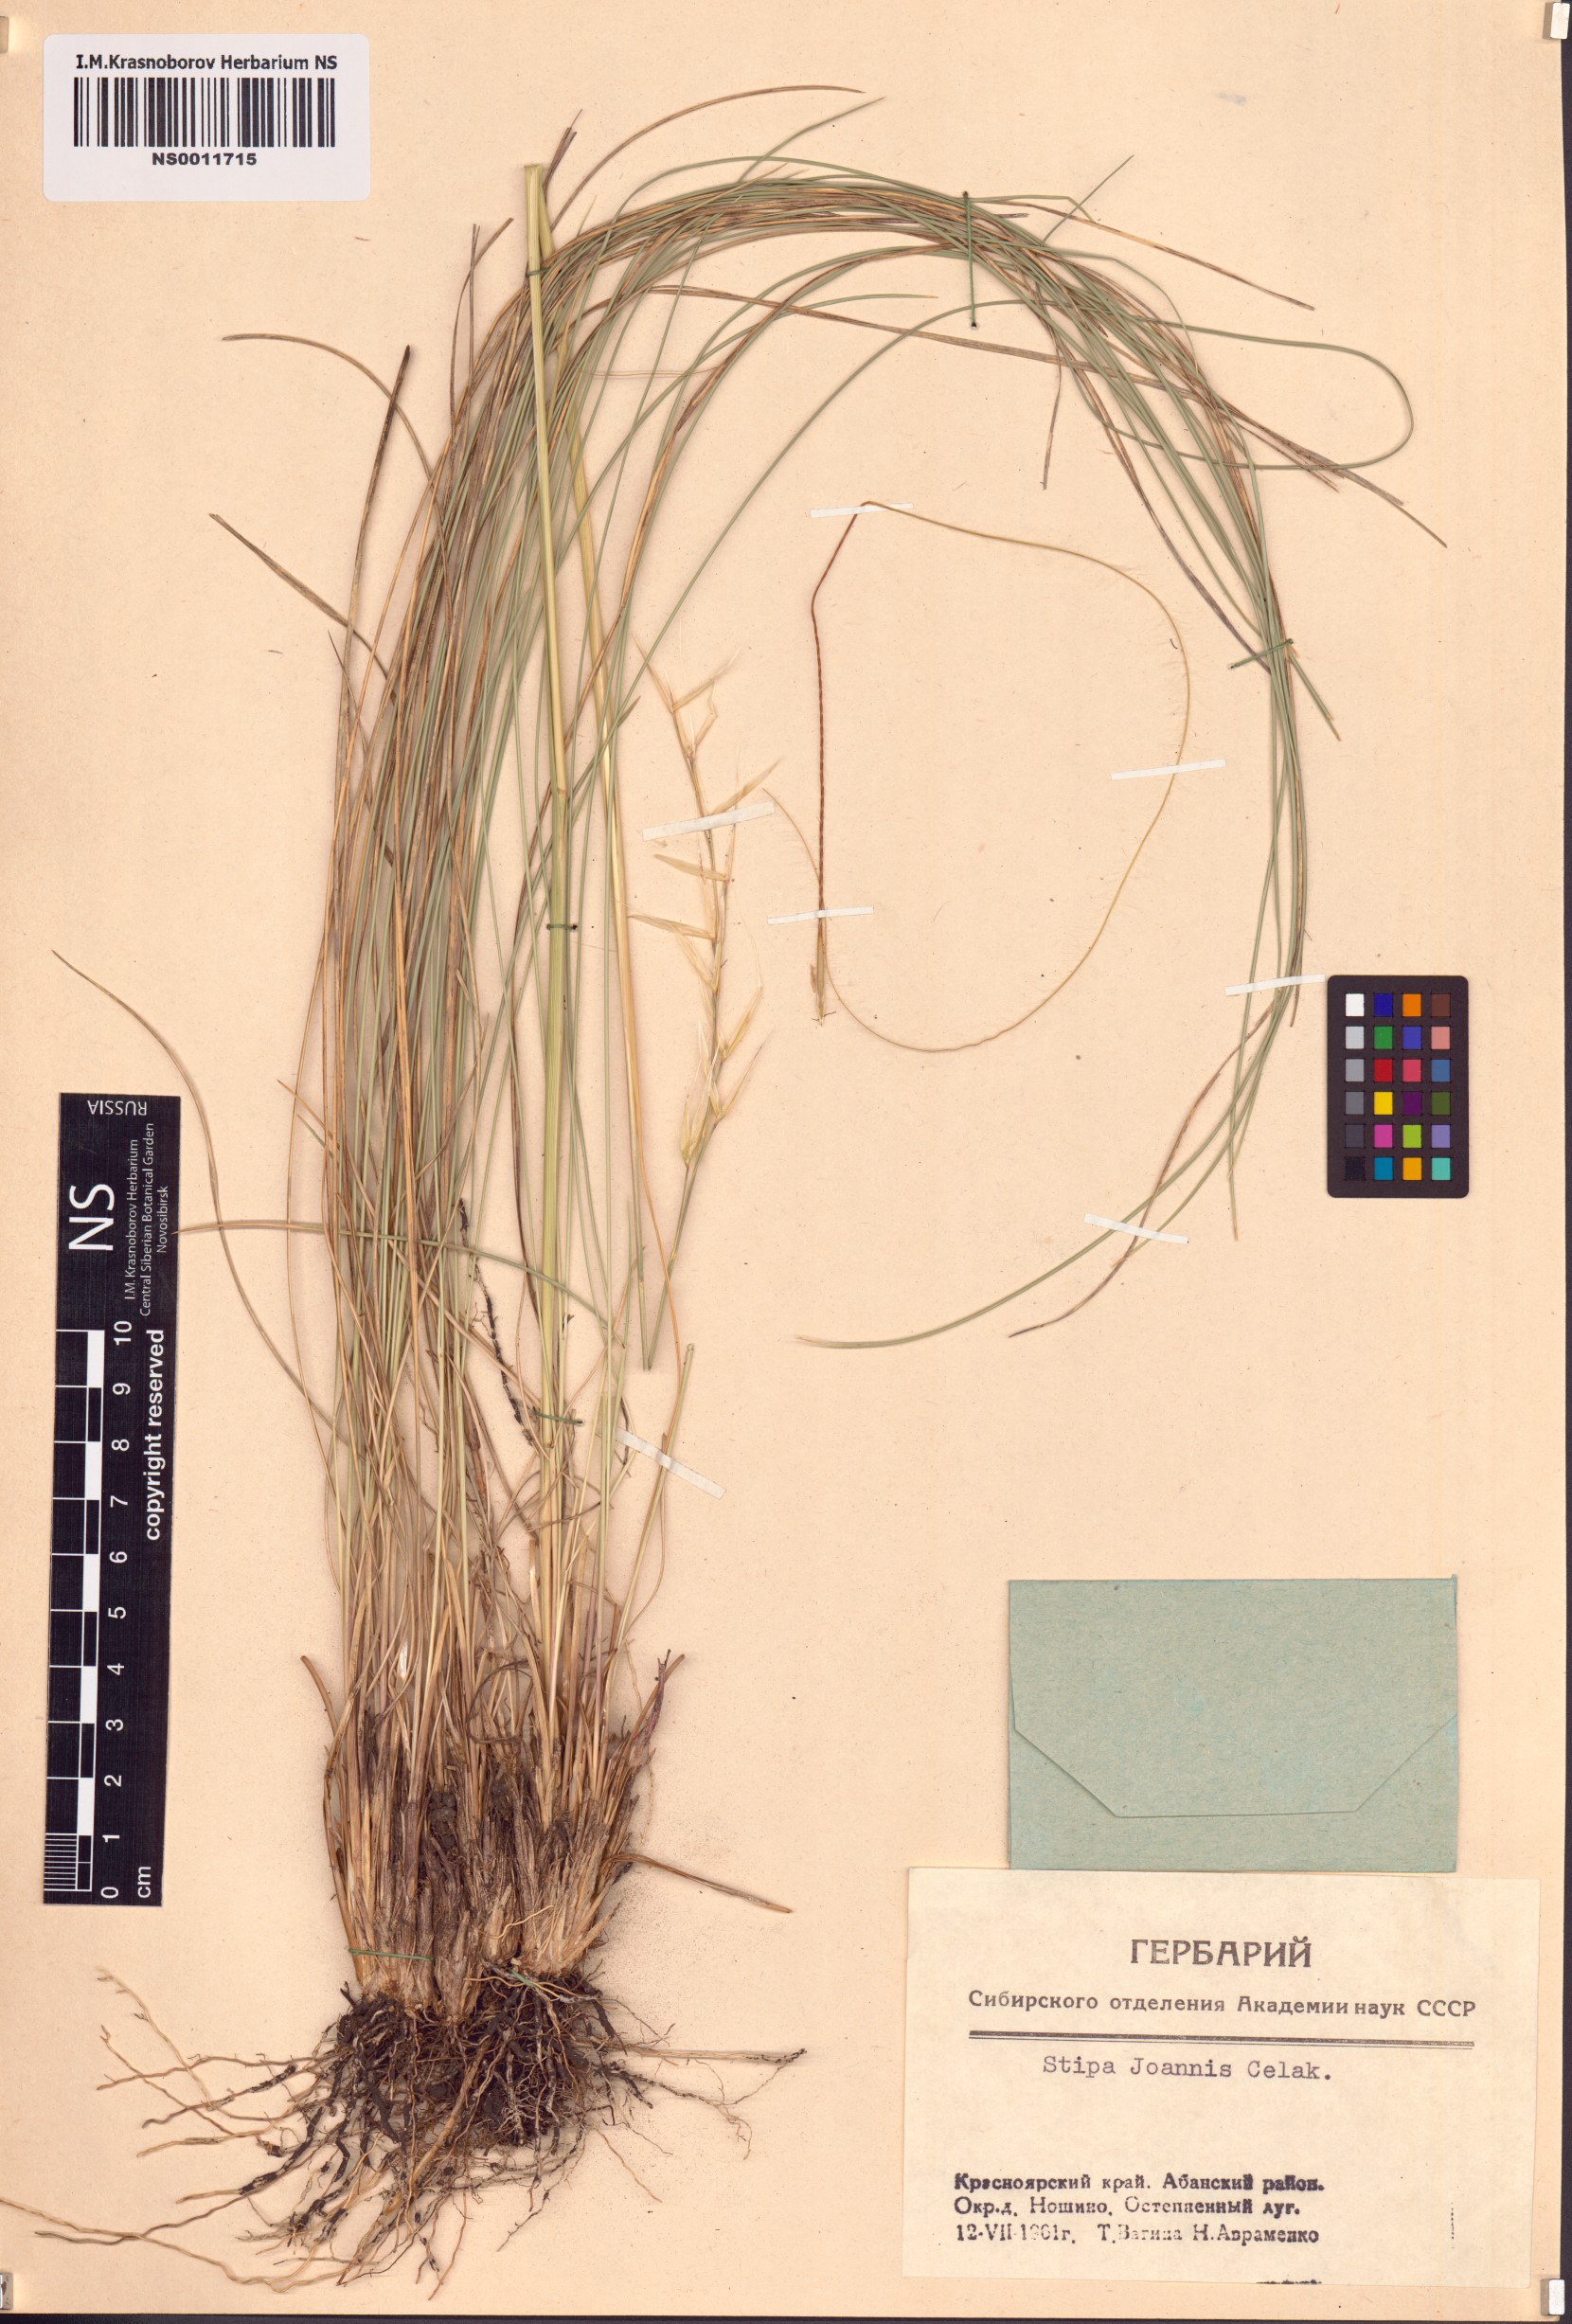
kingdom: Plantae
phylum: Tracheophyta
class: Liliopsida
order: Poales
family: Poaceae
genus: Stipa
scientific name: Stipa pennata
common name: European feather grass
